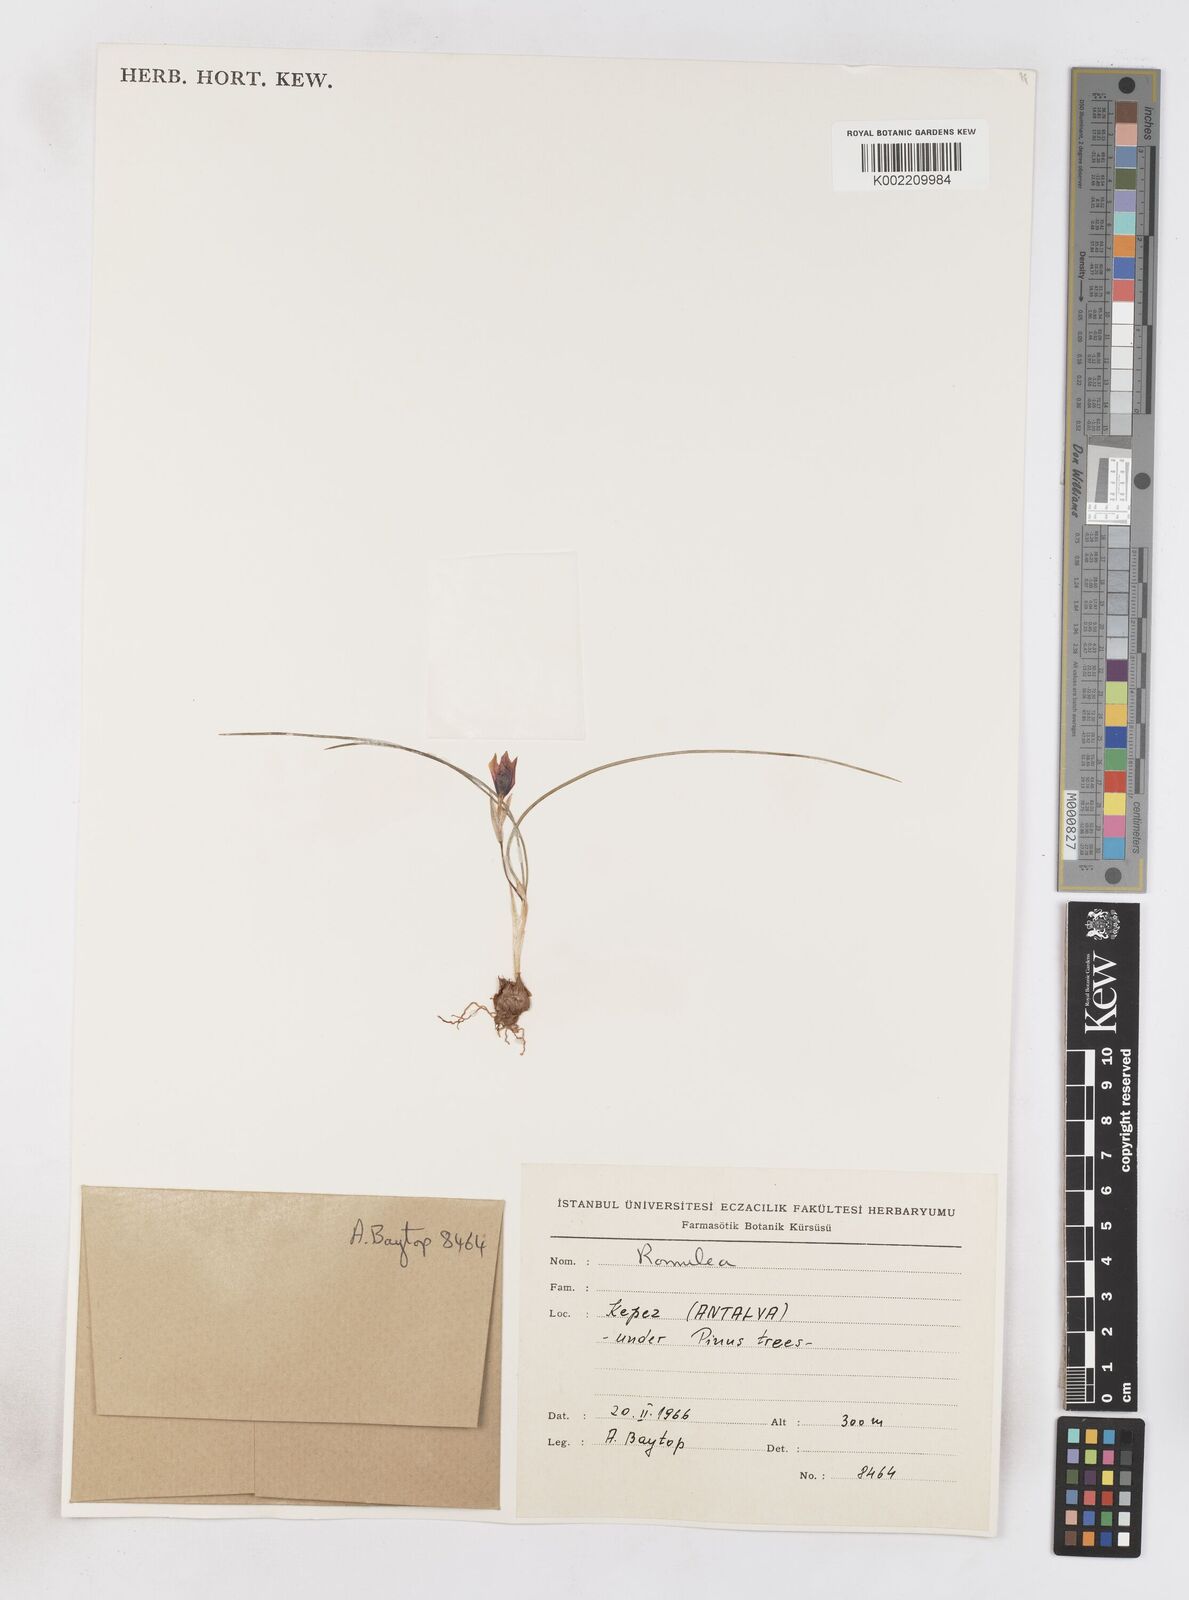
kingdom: Plantae
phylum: Tracheophyta
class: Liliopsida
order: Asparagales
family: Iridaceae
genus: Romulea
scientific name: Romulea tempskyana
